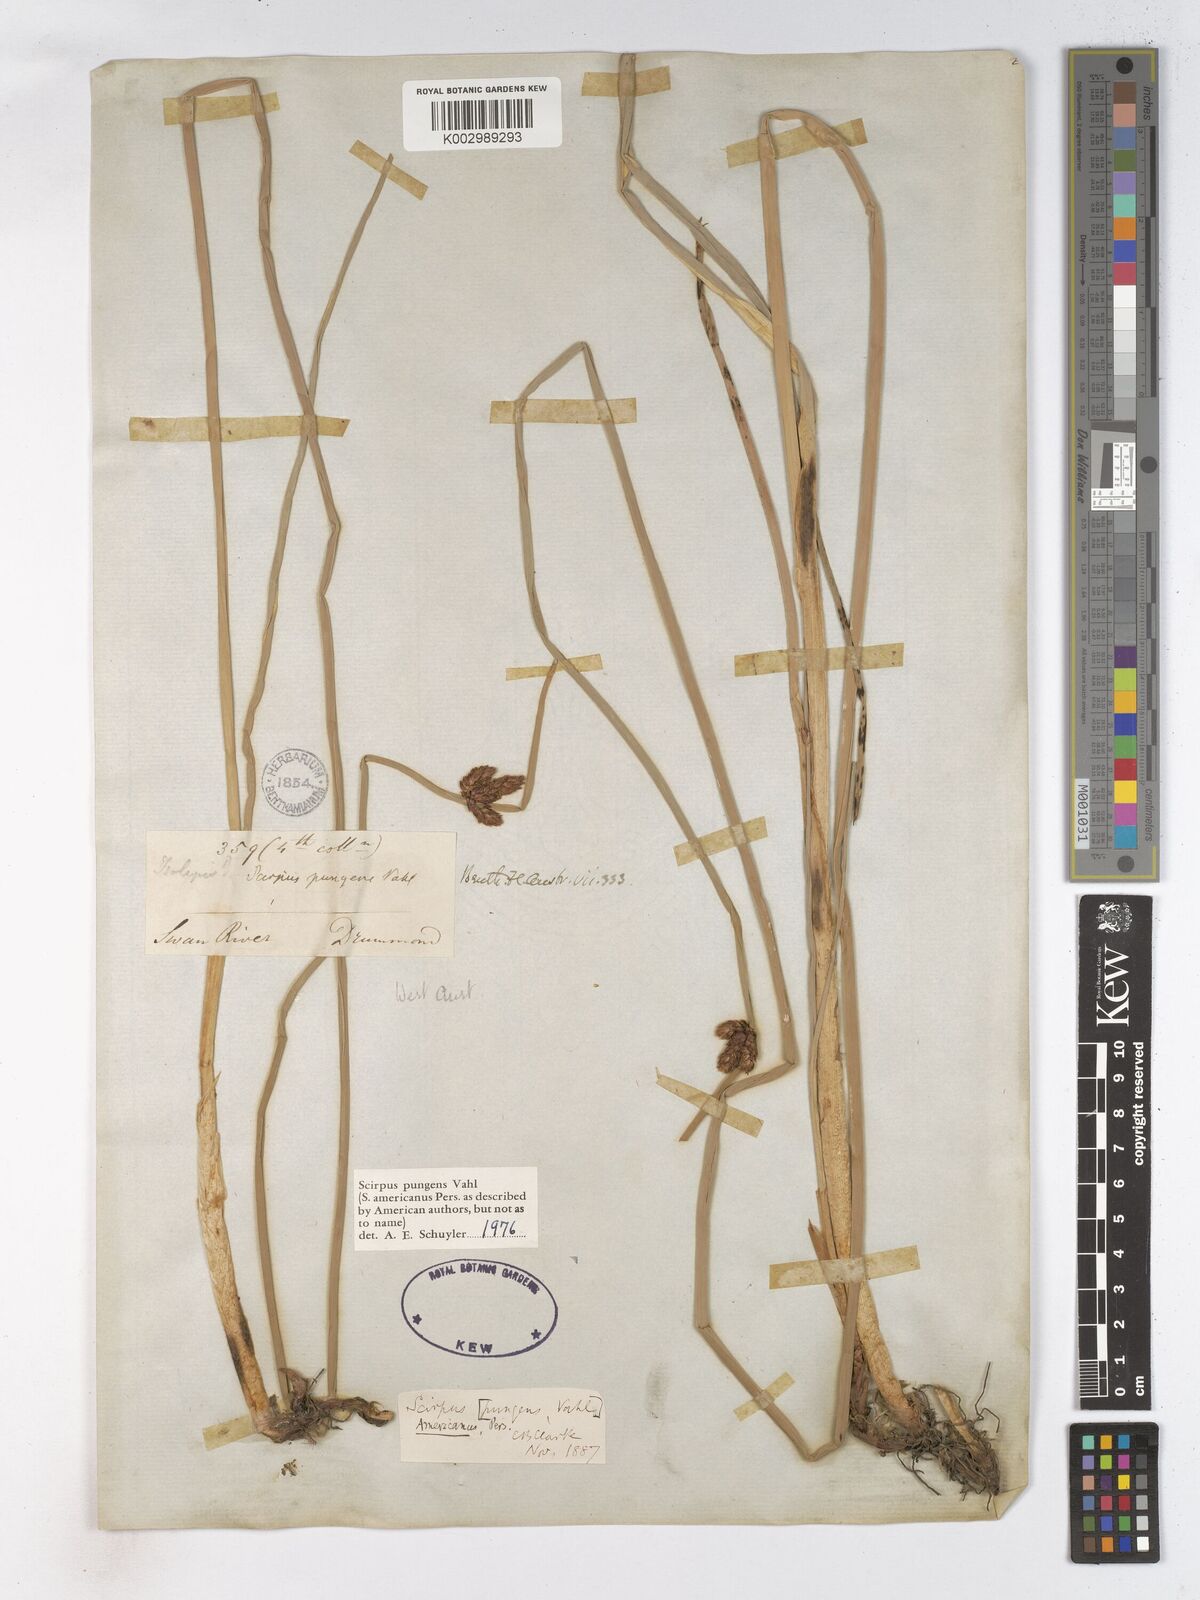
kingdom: Plantae
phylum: Tracheophyta
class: Liliopsida
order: Poales
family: Cyperaceae
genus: Schoenoplectus
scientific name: Schoenoplectus pungens
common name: Sharp club-rush
